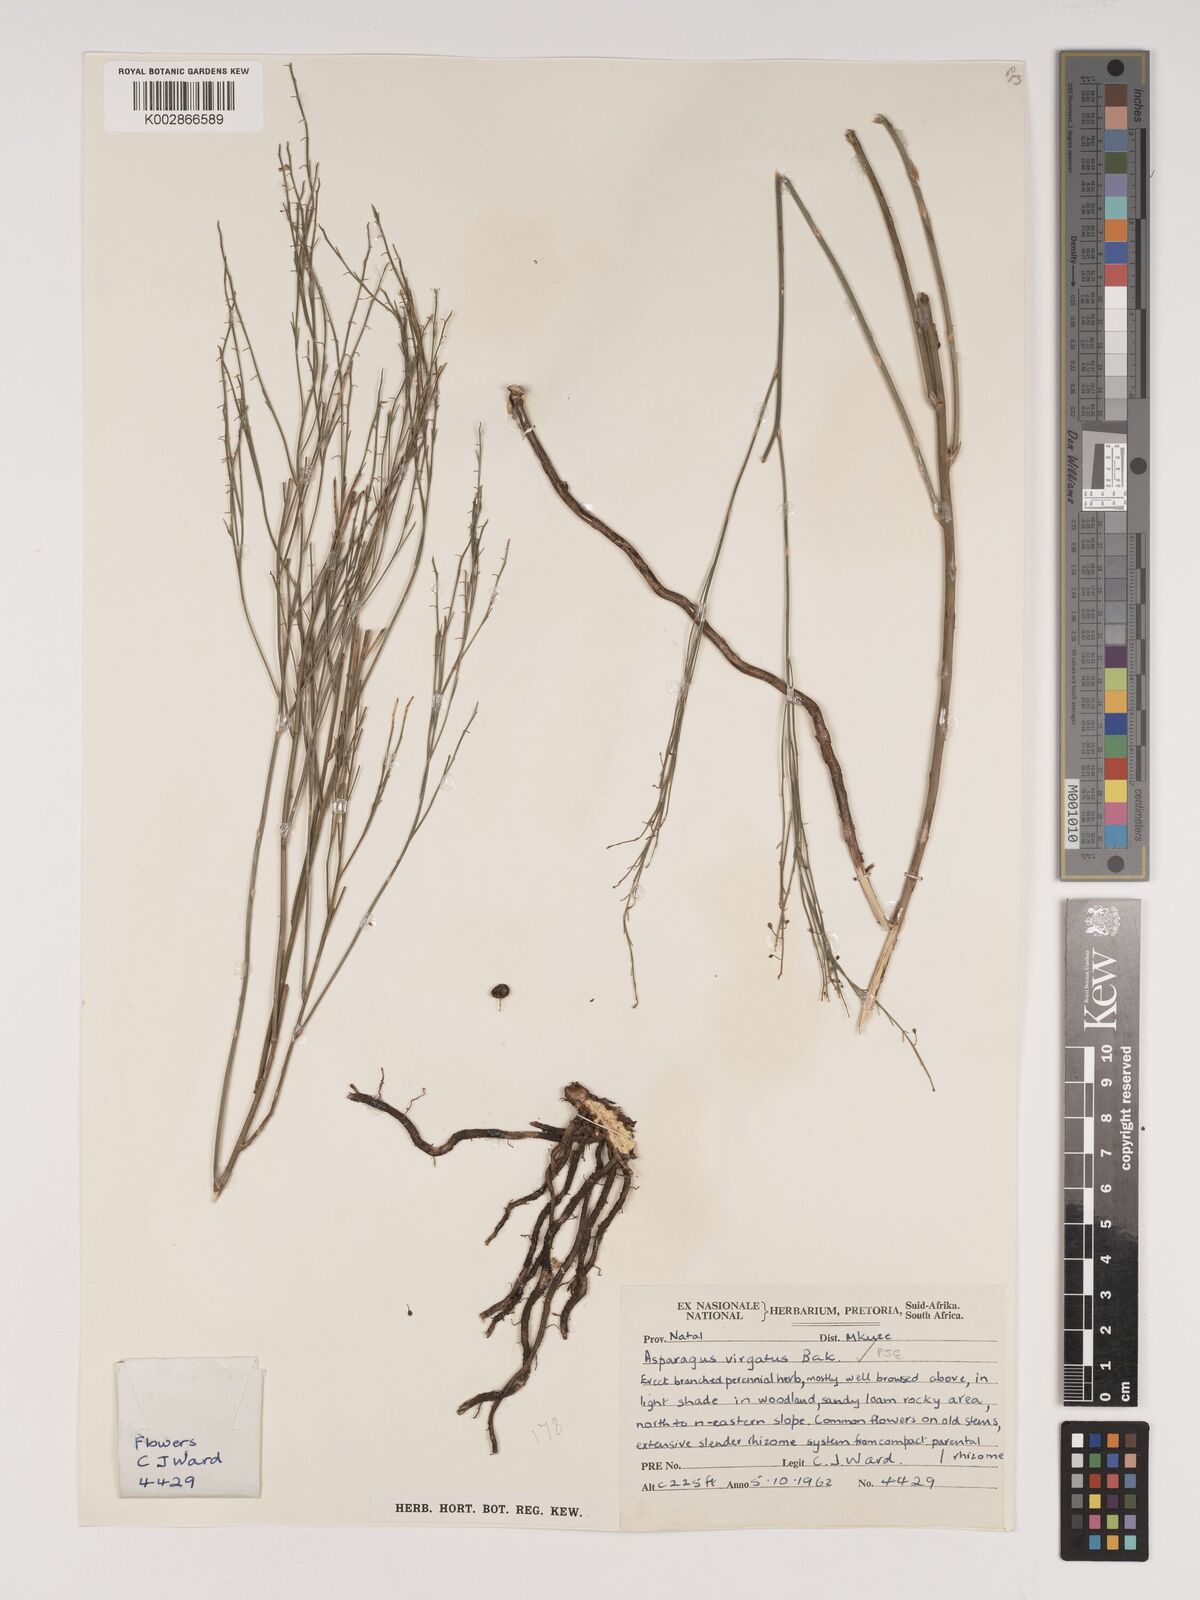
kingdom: Plantae
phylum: Tracheophyta
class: Liliopsida
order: Asparagales
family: Asparagaceae
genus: Asparagus
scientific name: Asparagus virgatus
